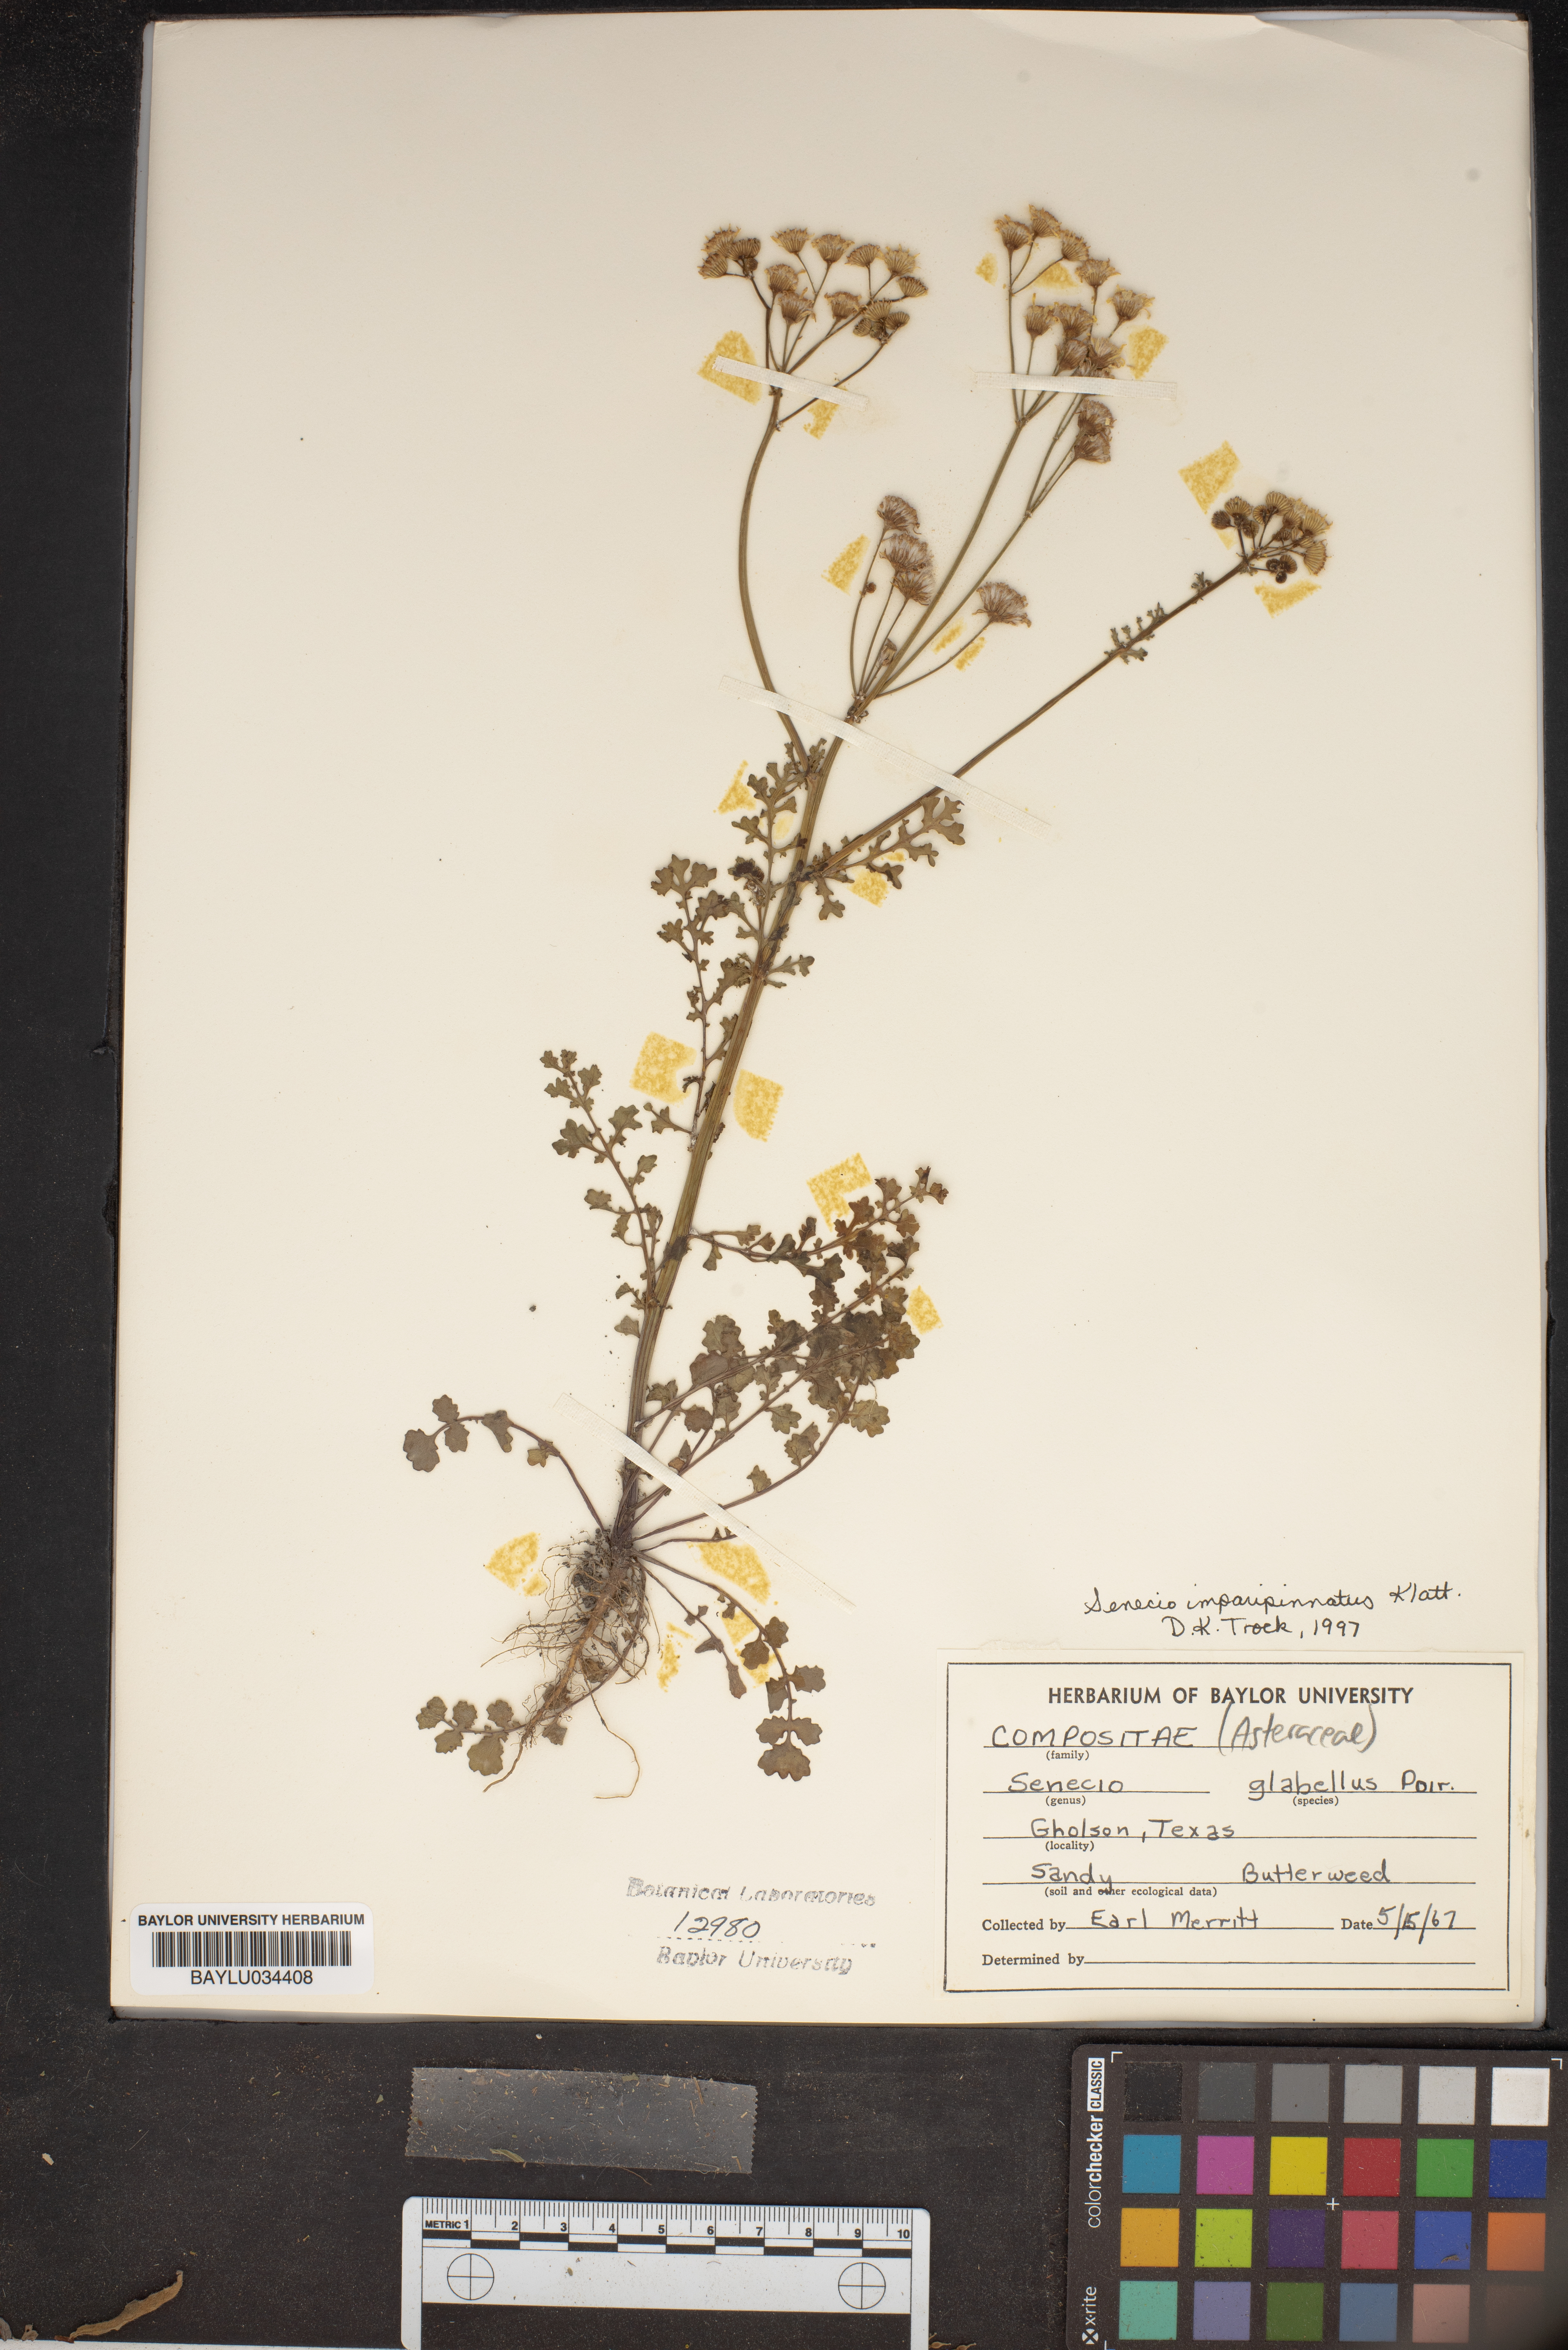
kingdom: Plantae
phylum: Tracheophyta
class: Magnoliopsida
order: Asterales
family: Asteraceae
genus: Tephroseris
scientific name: Tephroseris praticola
